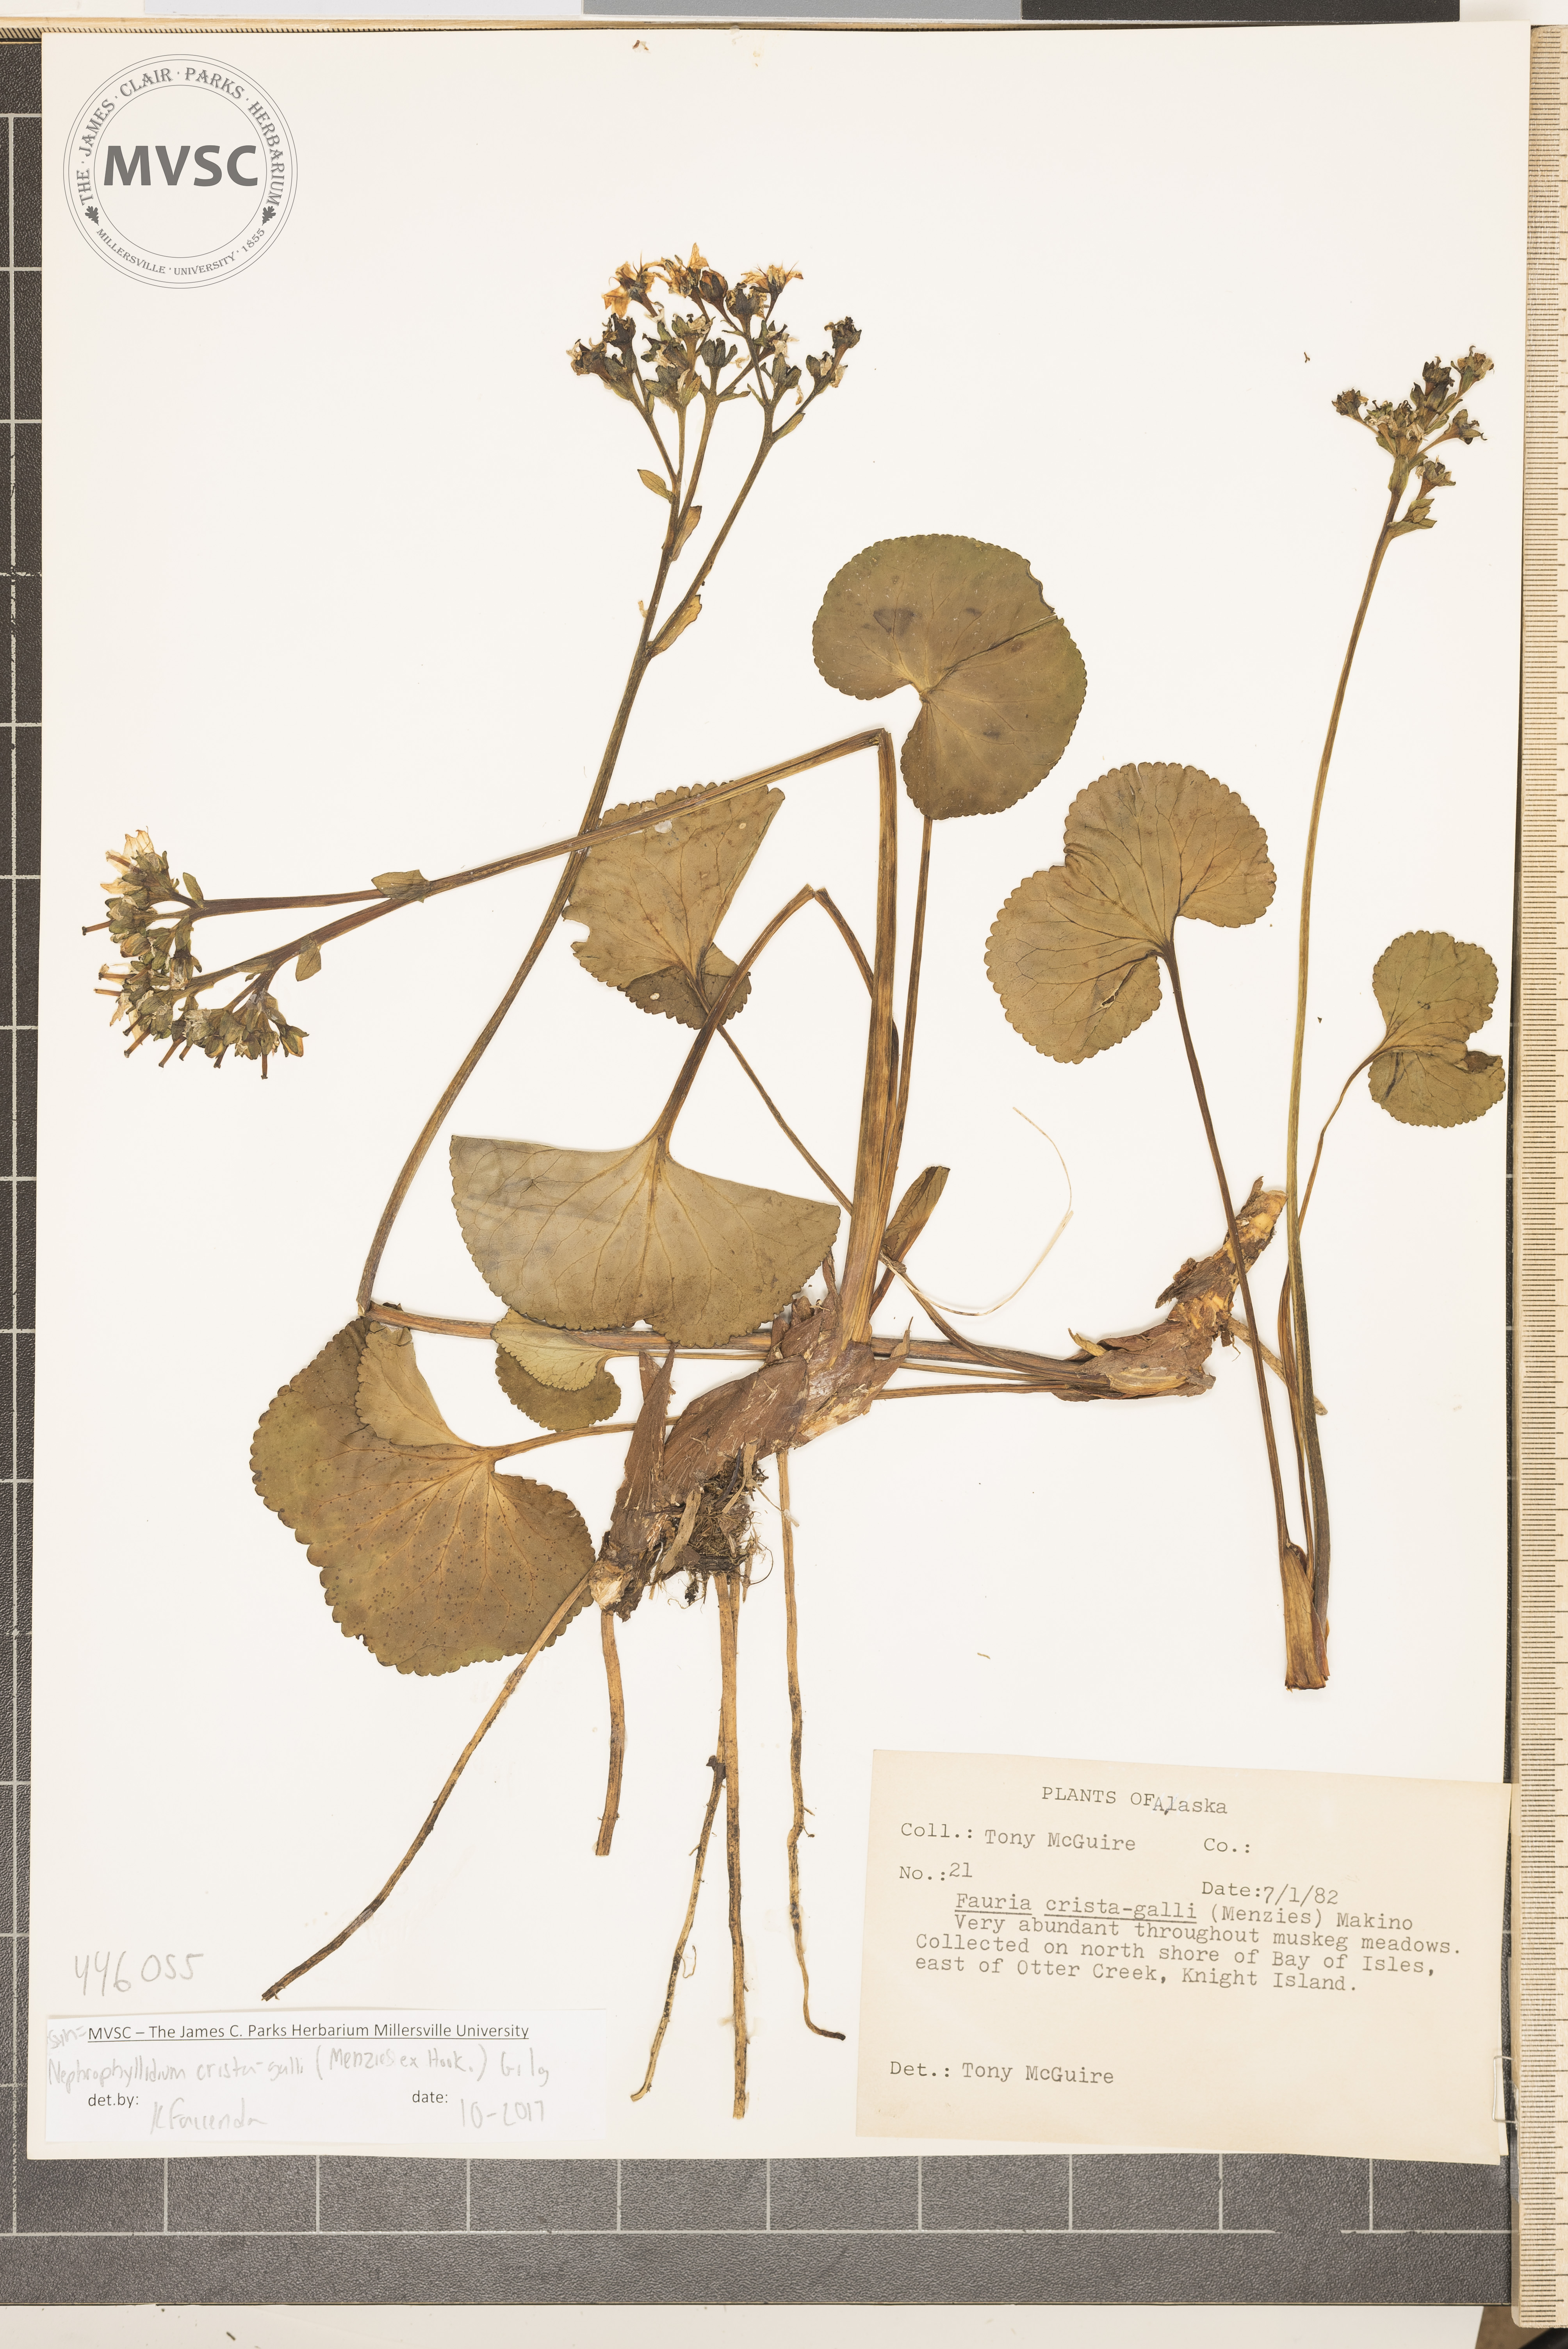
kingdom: Plantae
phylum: Tracheophyta
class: Magnoliopsida
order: Asterales
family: Menyanthaceae
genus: Nephrophyllidium
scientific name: Nephrophyllidium crista-galli
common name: Deer-cabbage
